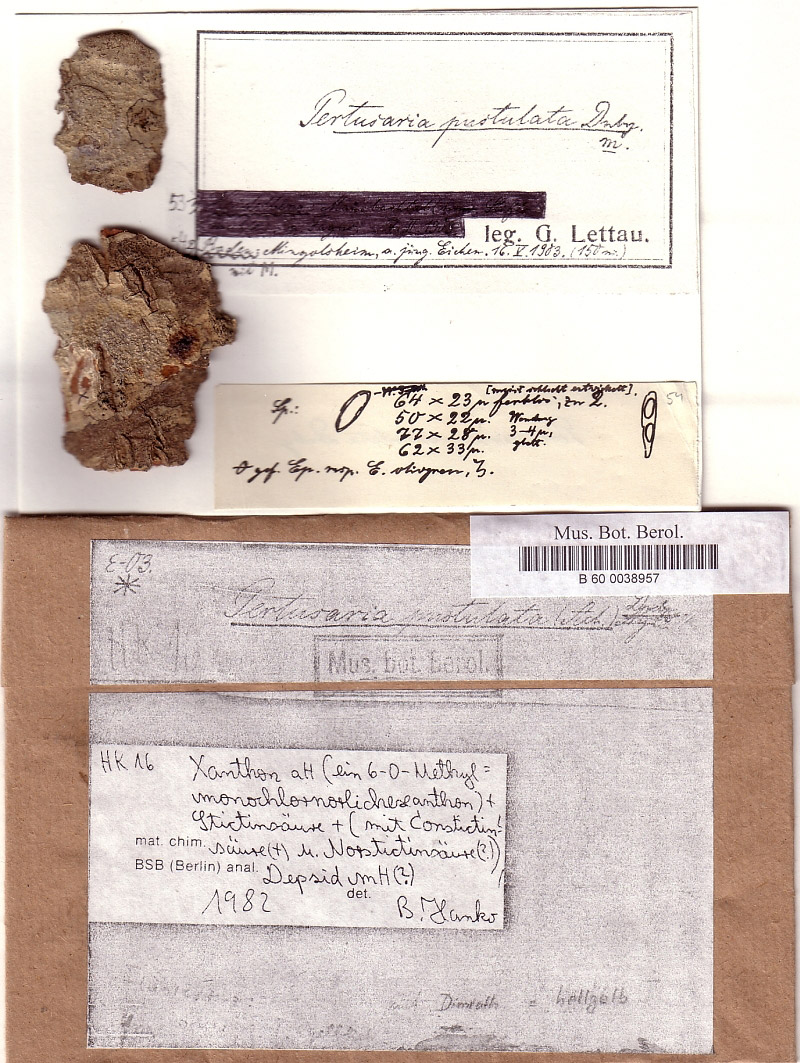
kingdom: Plantae
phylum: Tracheophyta
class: Magnoliopsida
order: Fagales
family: Fagaceae
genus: Quercus
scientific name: Quercus
